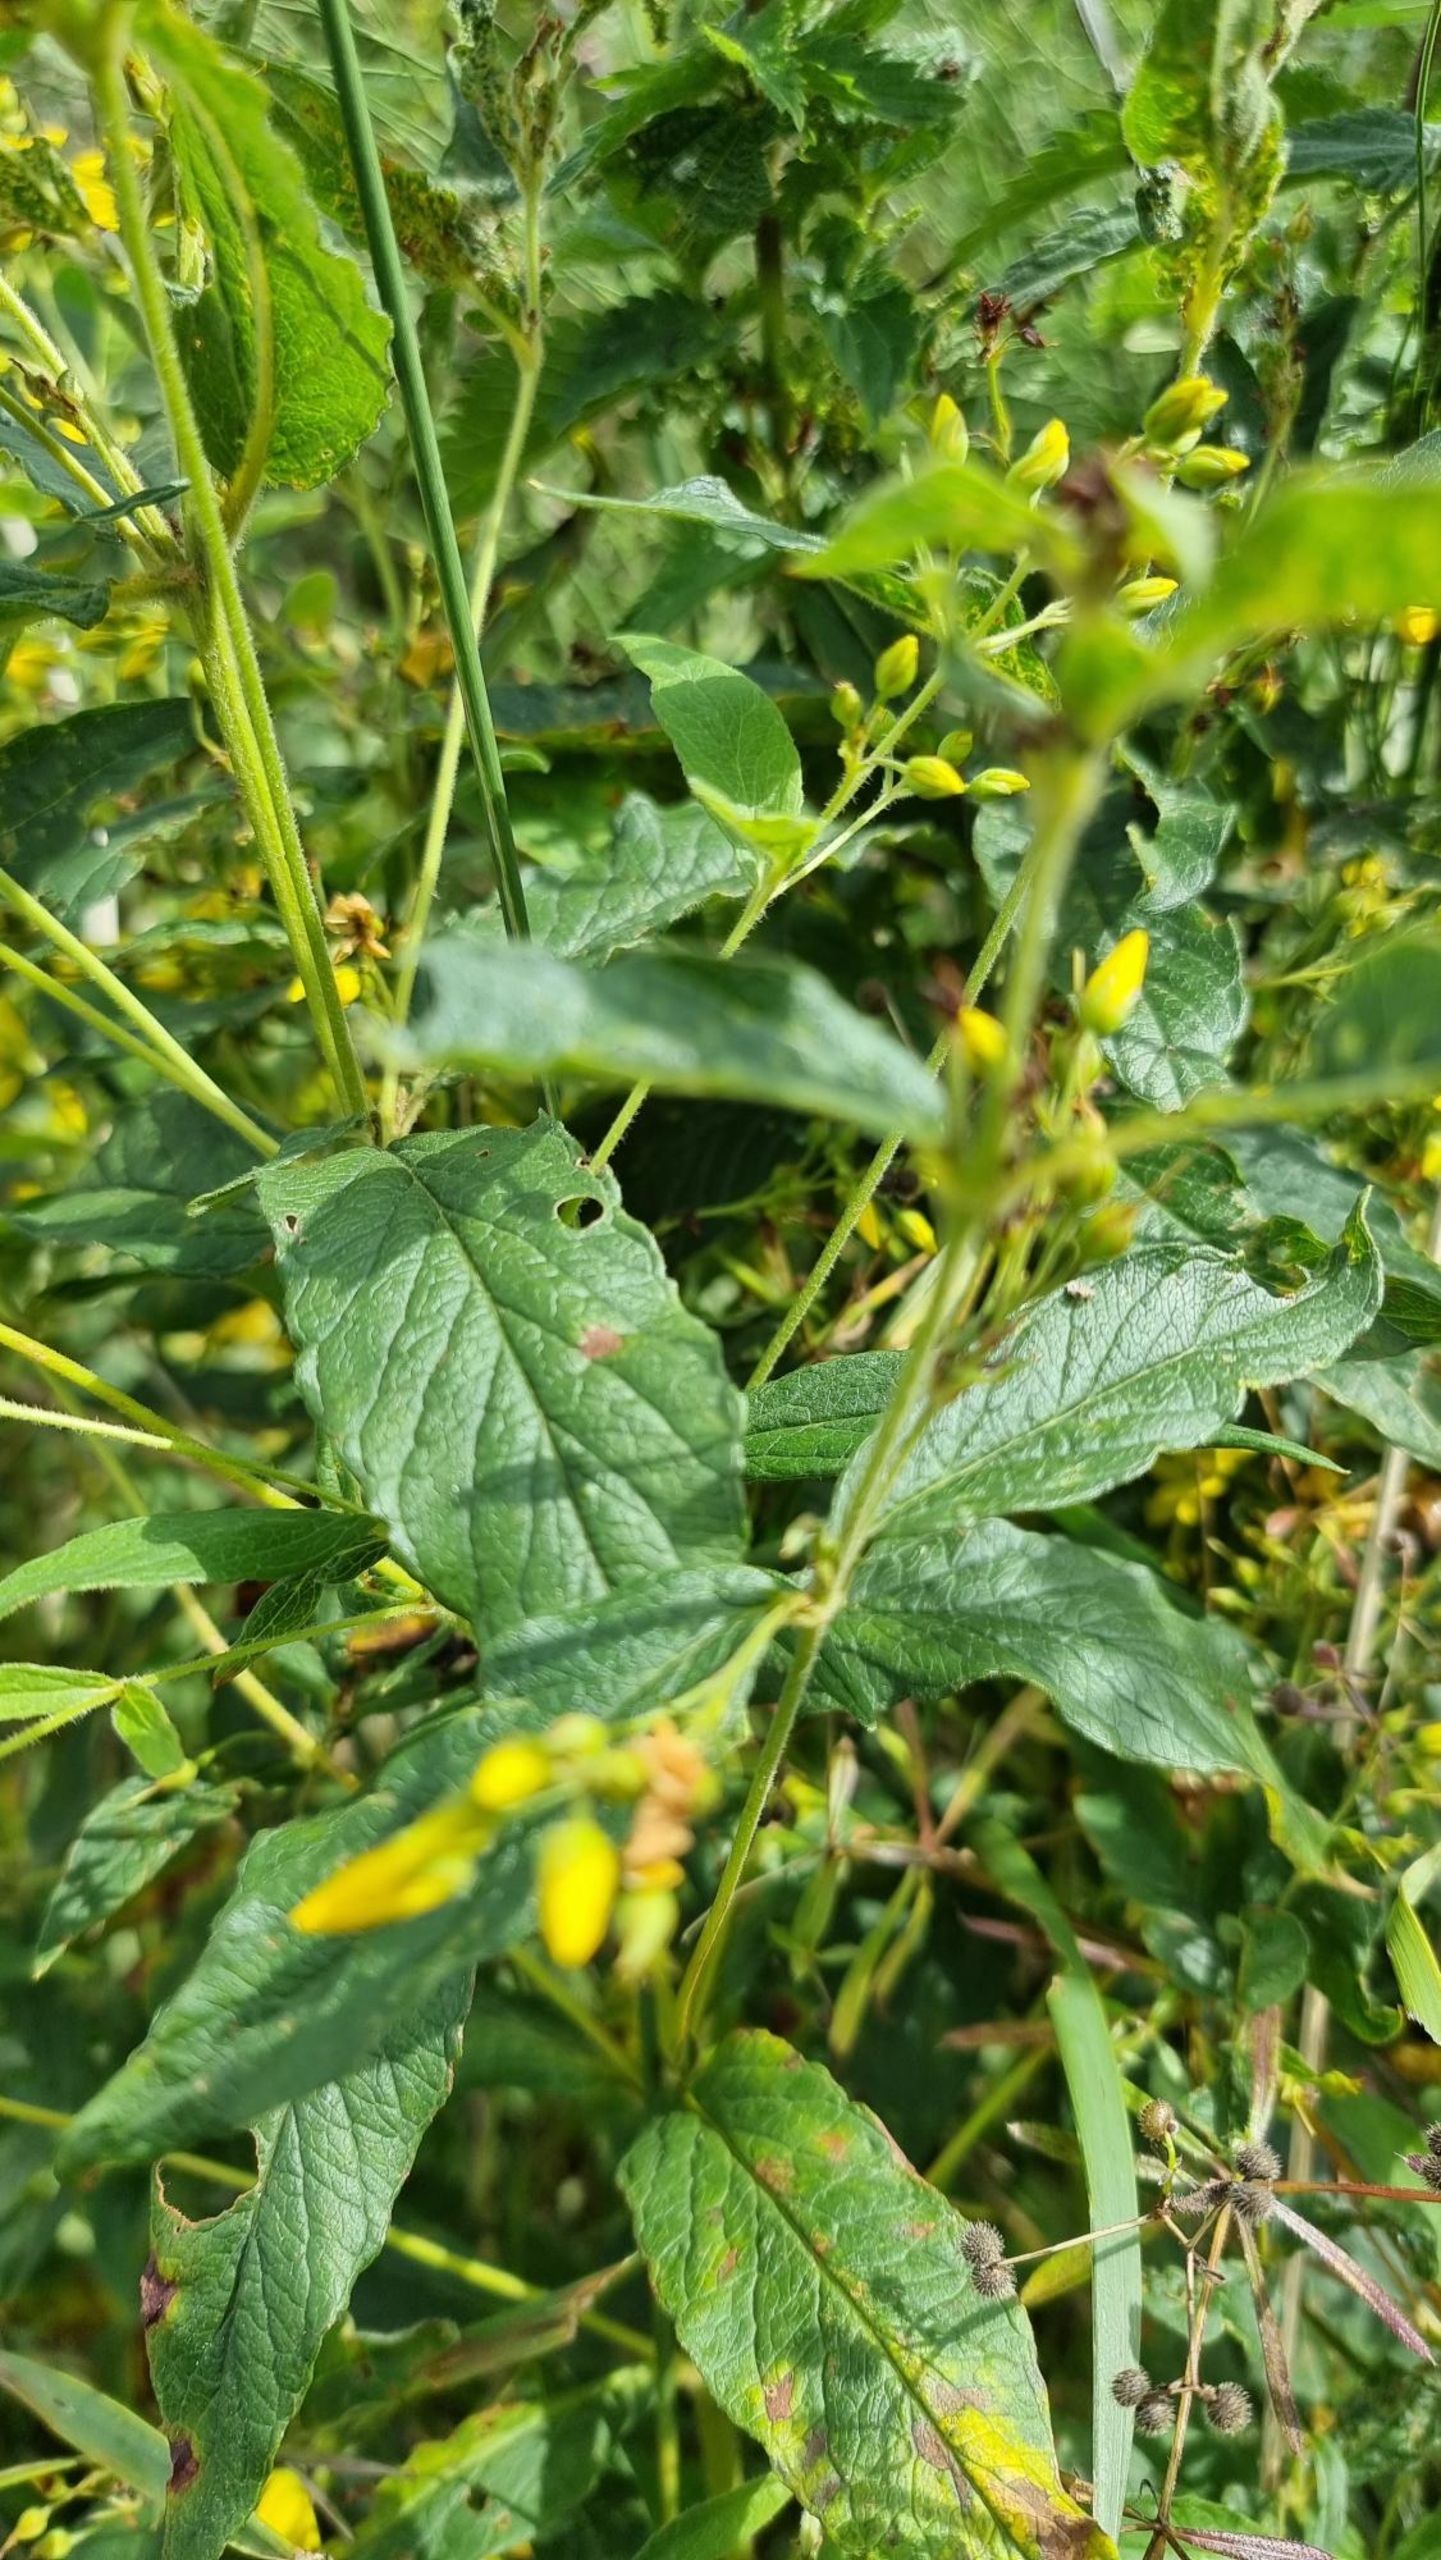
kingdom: Plantae
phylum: Tracheophyta
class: Magnoliopsida
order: Ericales
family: Primulaceae
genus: Lysimachia
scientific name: Lysimachia vulgaris
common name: Almindelig fredløs
